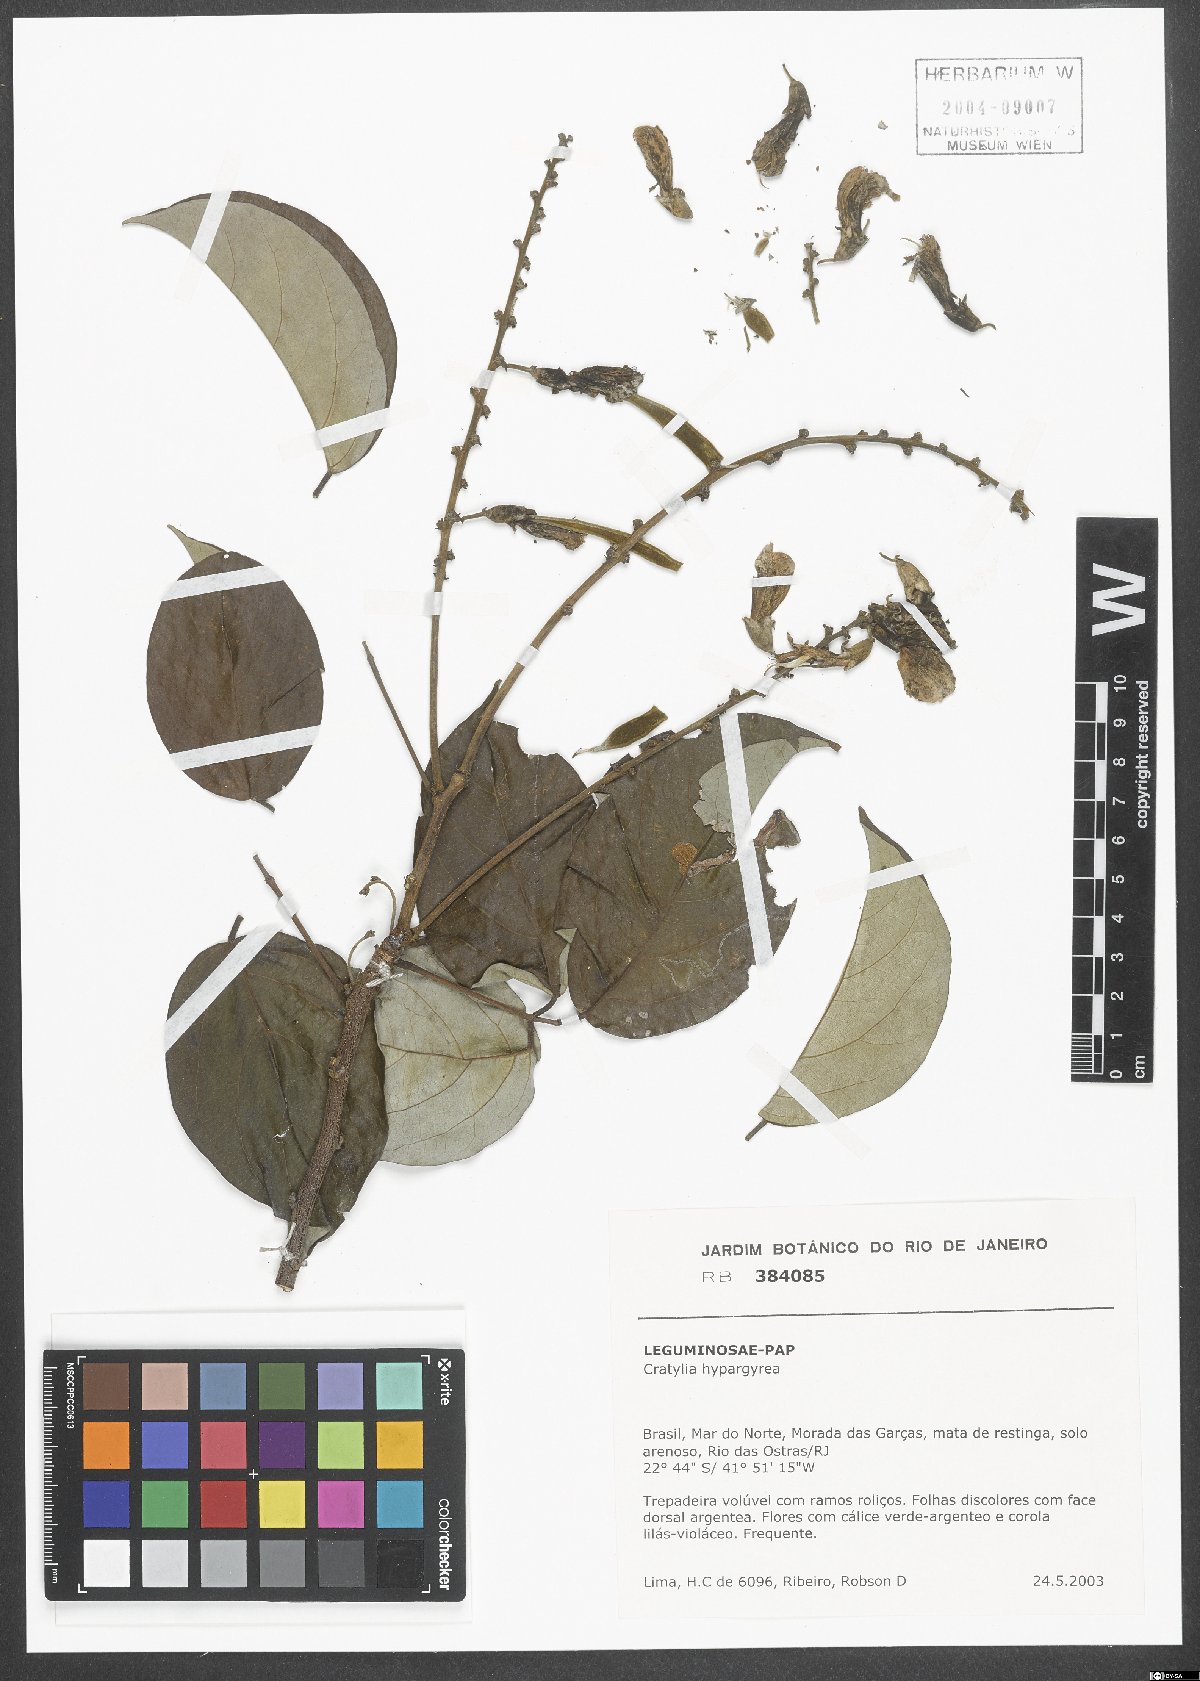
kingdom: Plantae
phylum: Tracheophyta
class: Magnoliopsida
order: Fabales
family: Fabaceae
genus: Cratylia
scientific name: Cratylia hypargyraea
